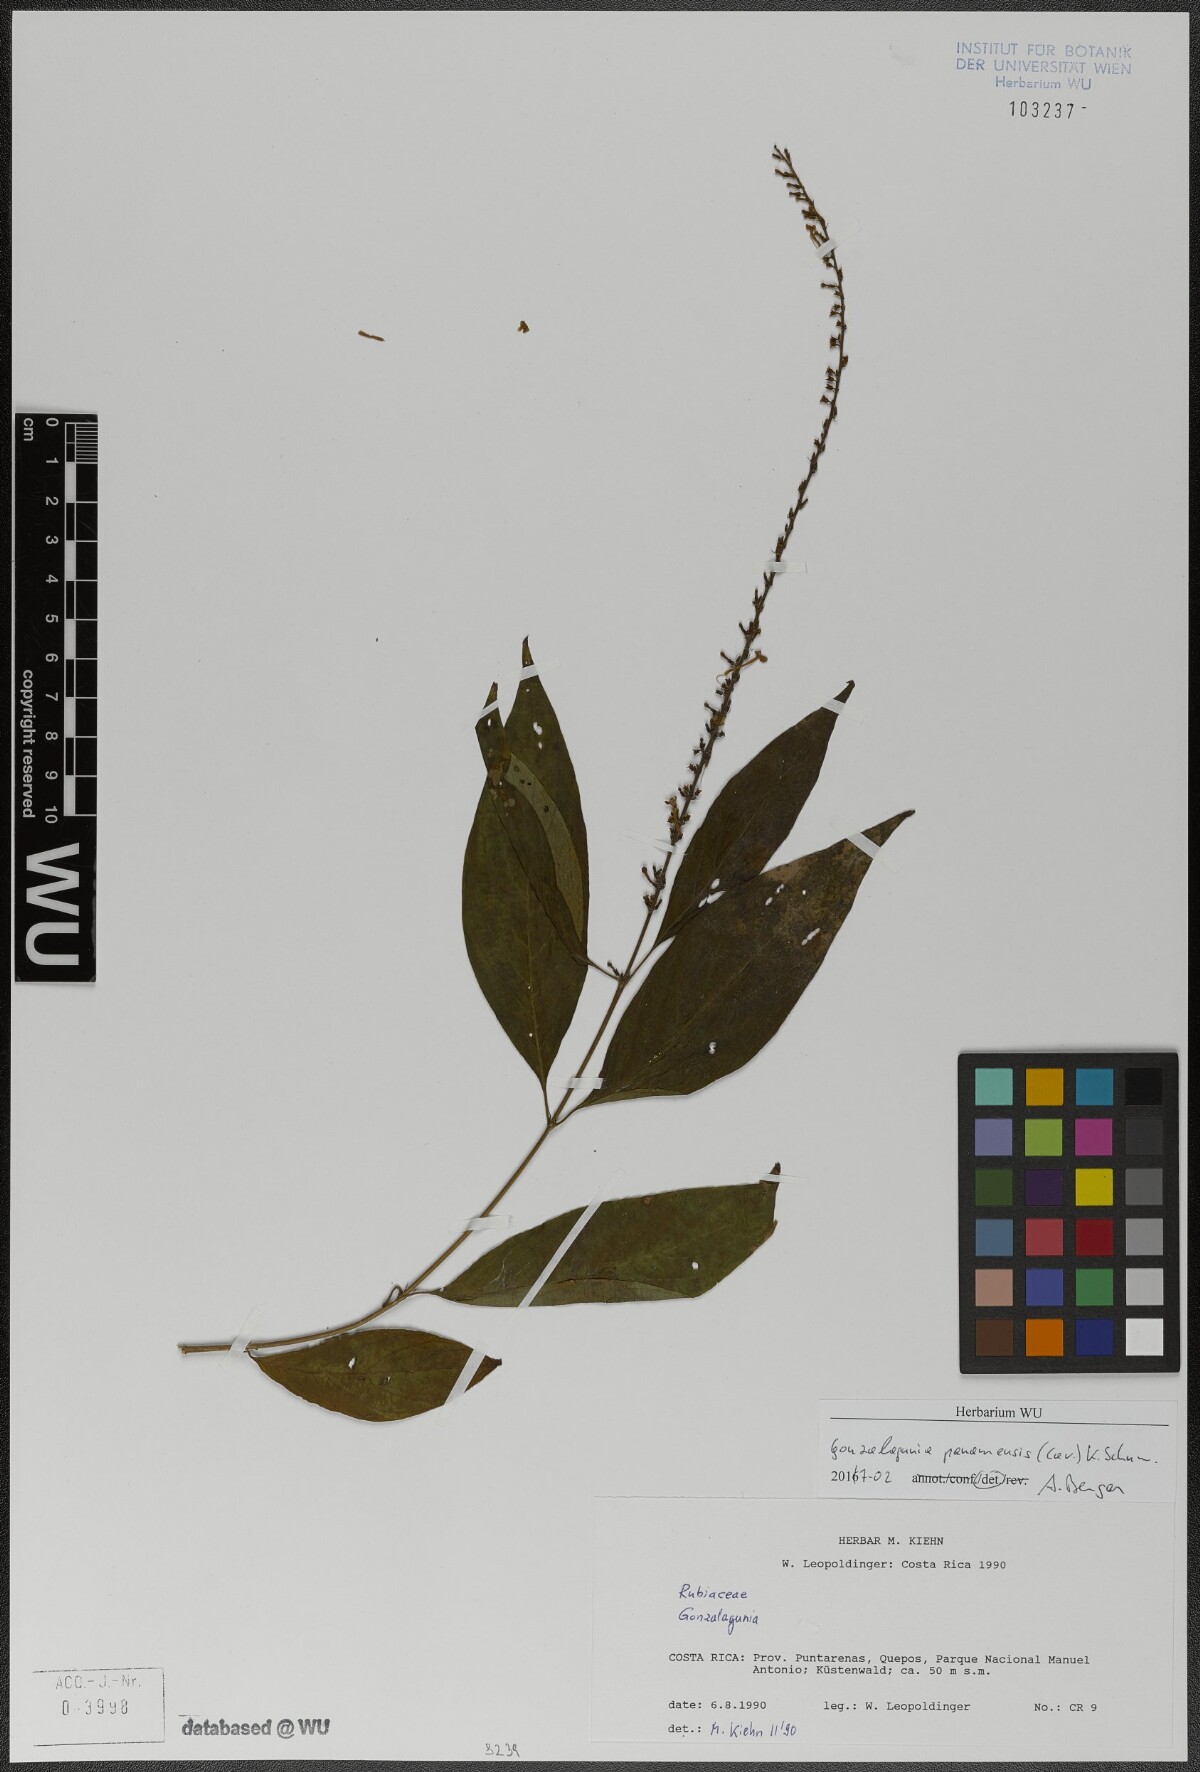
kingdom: Plantae
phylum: Tracheophyta
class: Magnoliopsida
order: Gentianales
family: Rubiaceae
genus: Gonzalagunia
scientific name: Gonzalagunia panamensis
